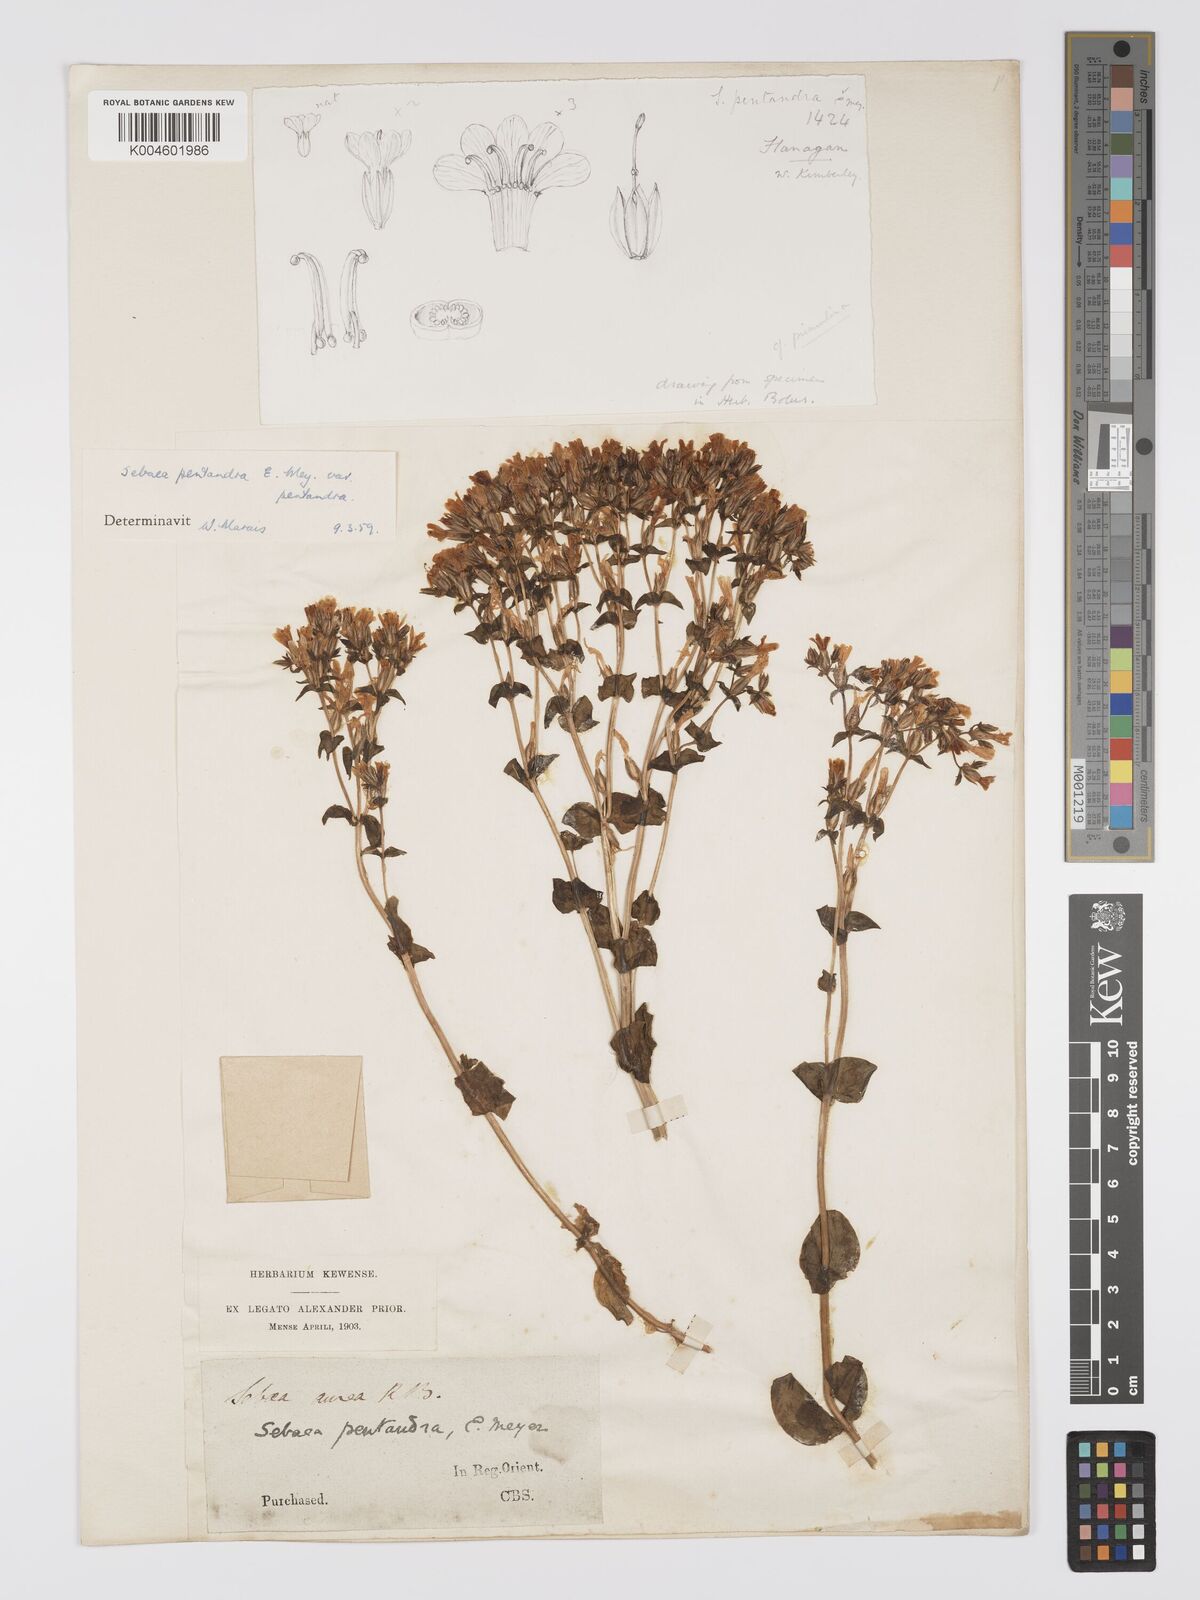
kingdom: Plantae
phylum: Tracheophyta
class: Magnoliopsida
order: Gentianales
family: Gentianaceae
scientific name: Gentianaceae
